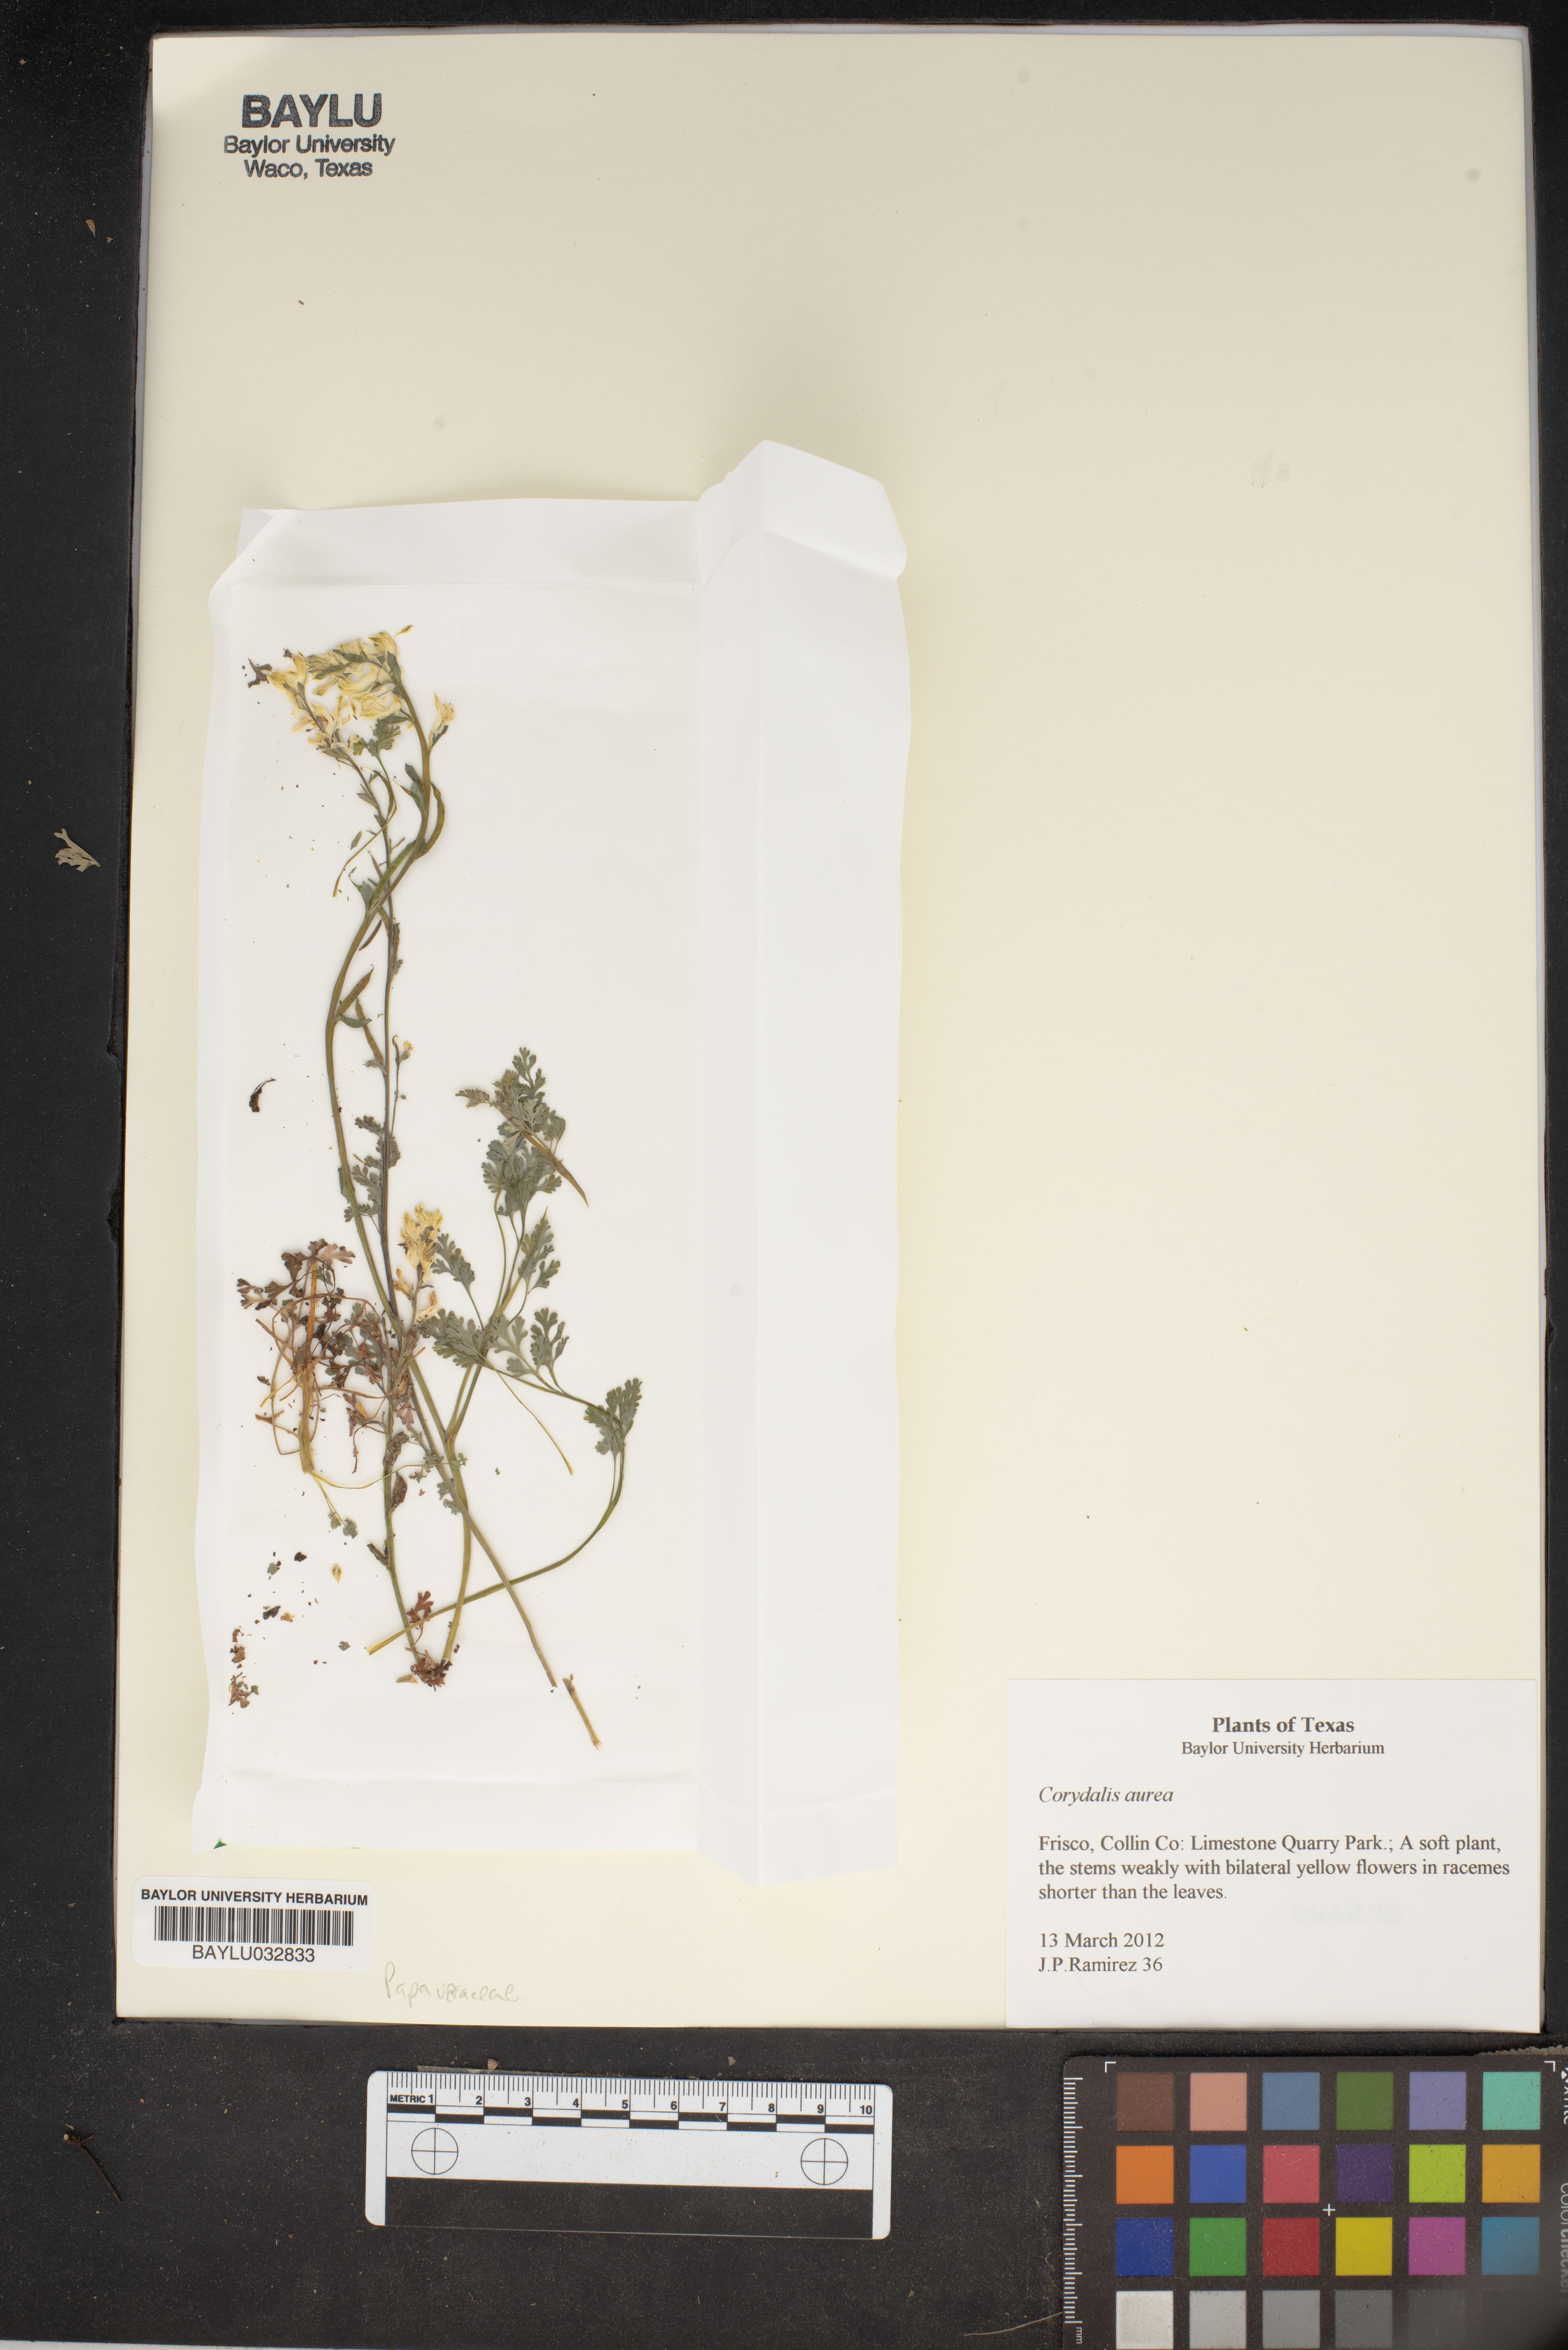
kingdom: Plantae
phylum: Tracheophyta
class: Magnoliopsida
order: Ranunculales
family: Papaveraceae
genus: Corydalis
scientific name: Corydalis aurea
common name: Golden corydalis
